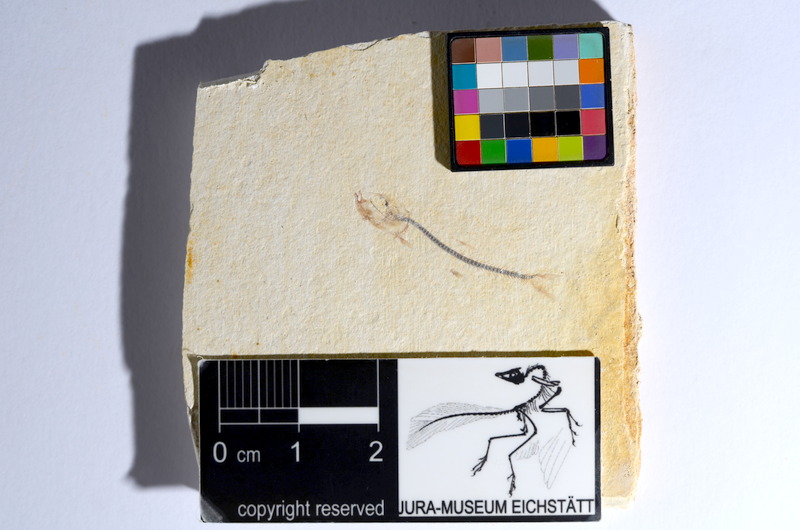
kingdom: Animalia
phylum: Chordata
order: Salmoniformes
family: Orthogonikleithridae
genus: Orthogonikleithrus
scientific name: Orthogonikleithrus hoelli
